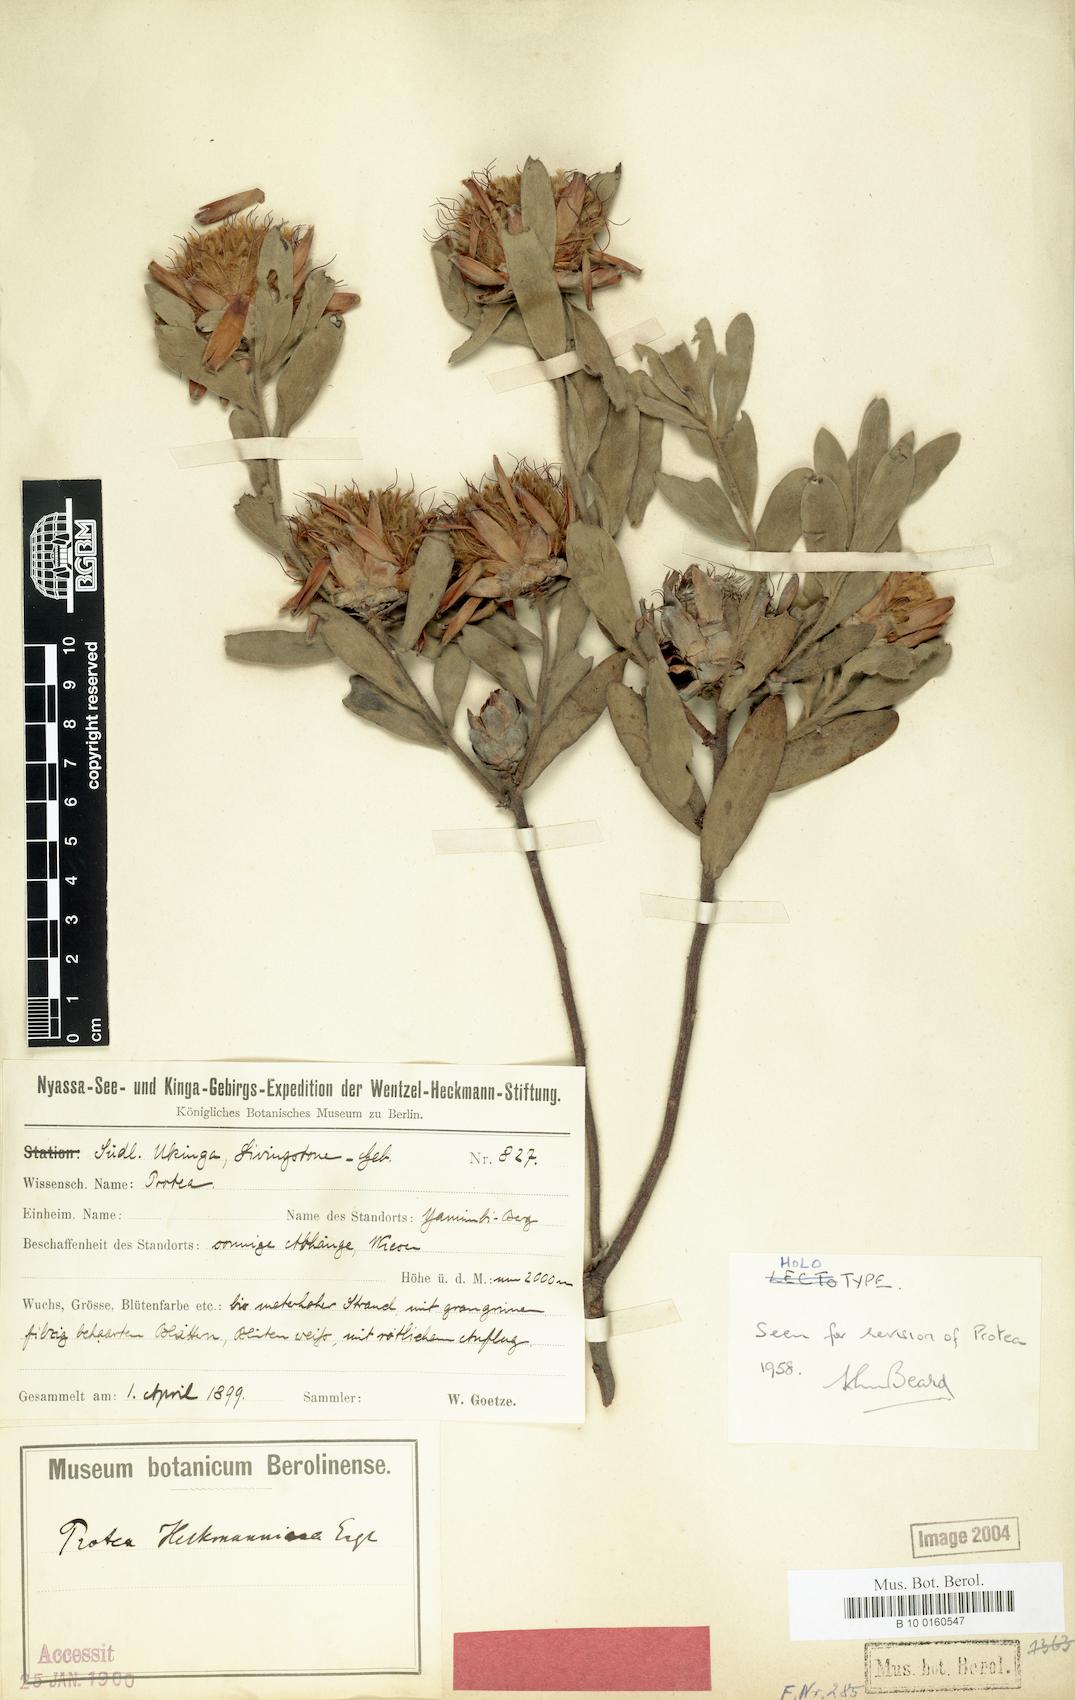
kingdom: Plantae
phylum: Tracheophyta
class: Magnoliopsida
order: Proteales
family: Proteaceae
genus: Protea
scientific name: Protea heckmanniana
